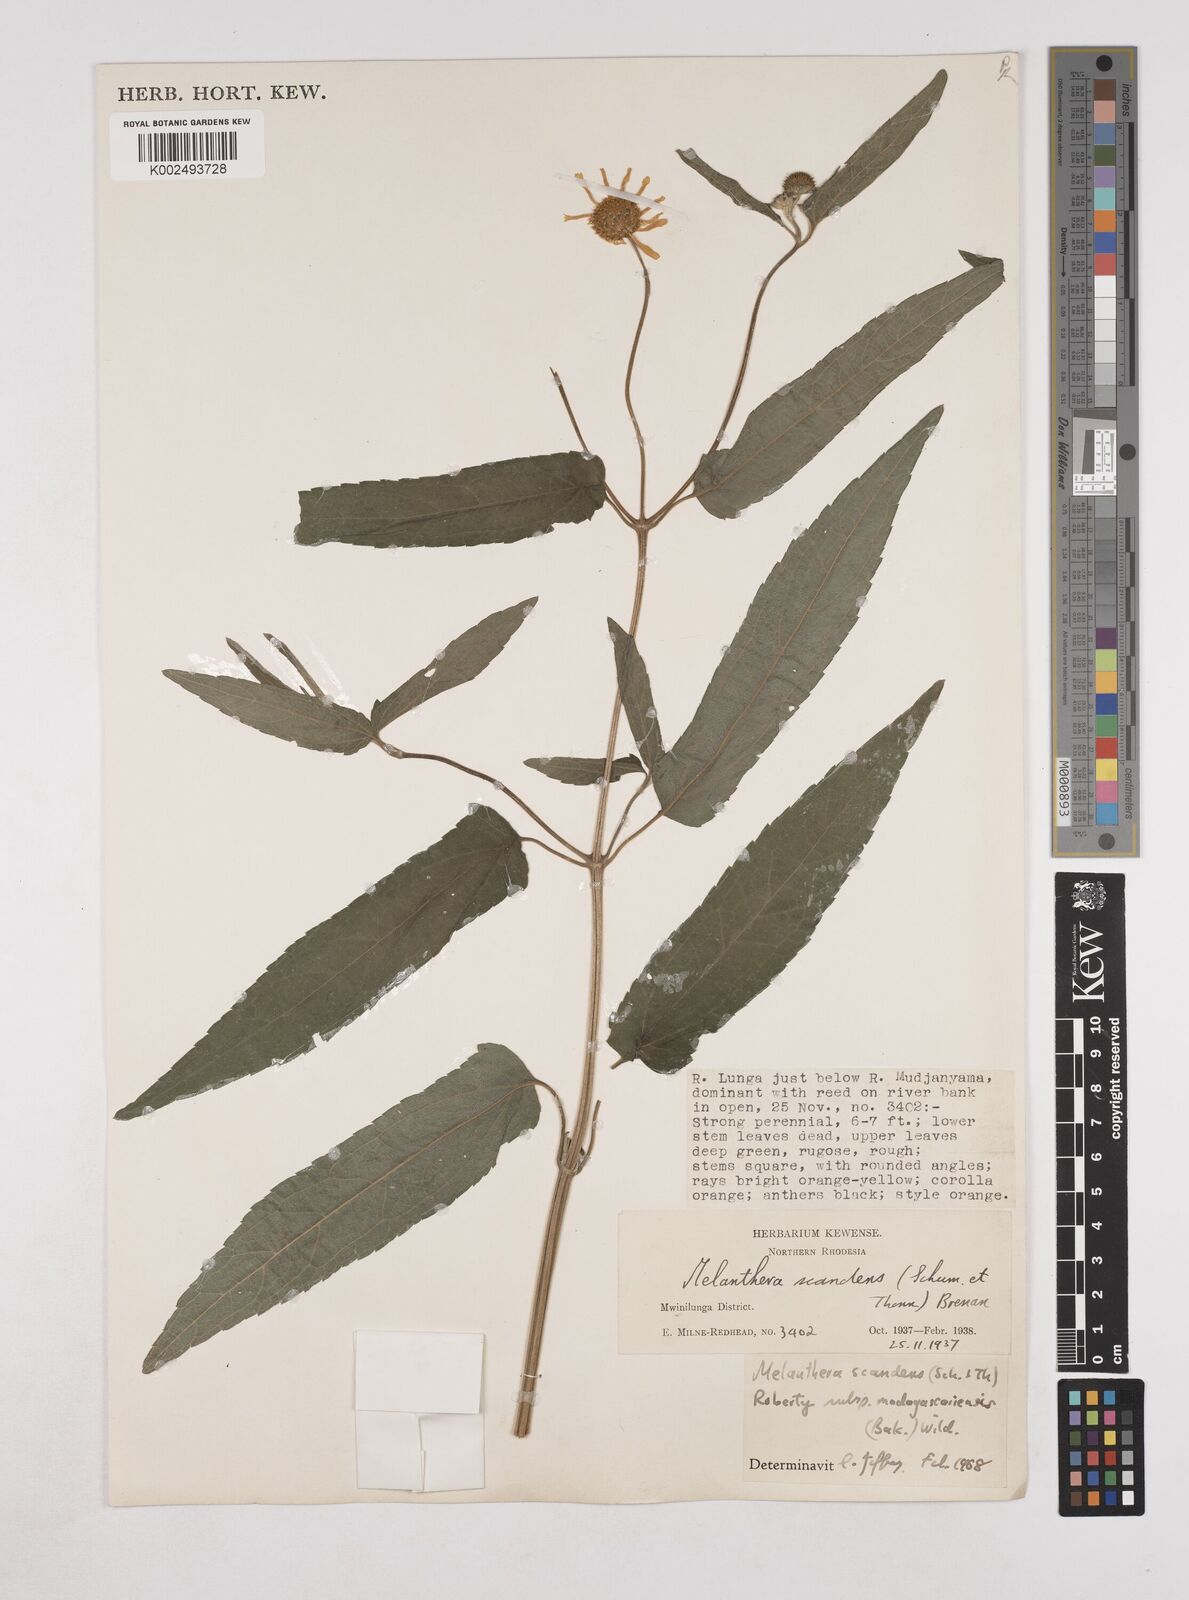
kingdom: Plantae
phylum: Tracheophyta
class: Magnoliopsida
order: Asterales
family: Asteraceae
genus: Lipotriche
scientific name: Lipotriche scandens
